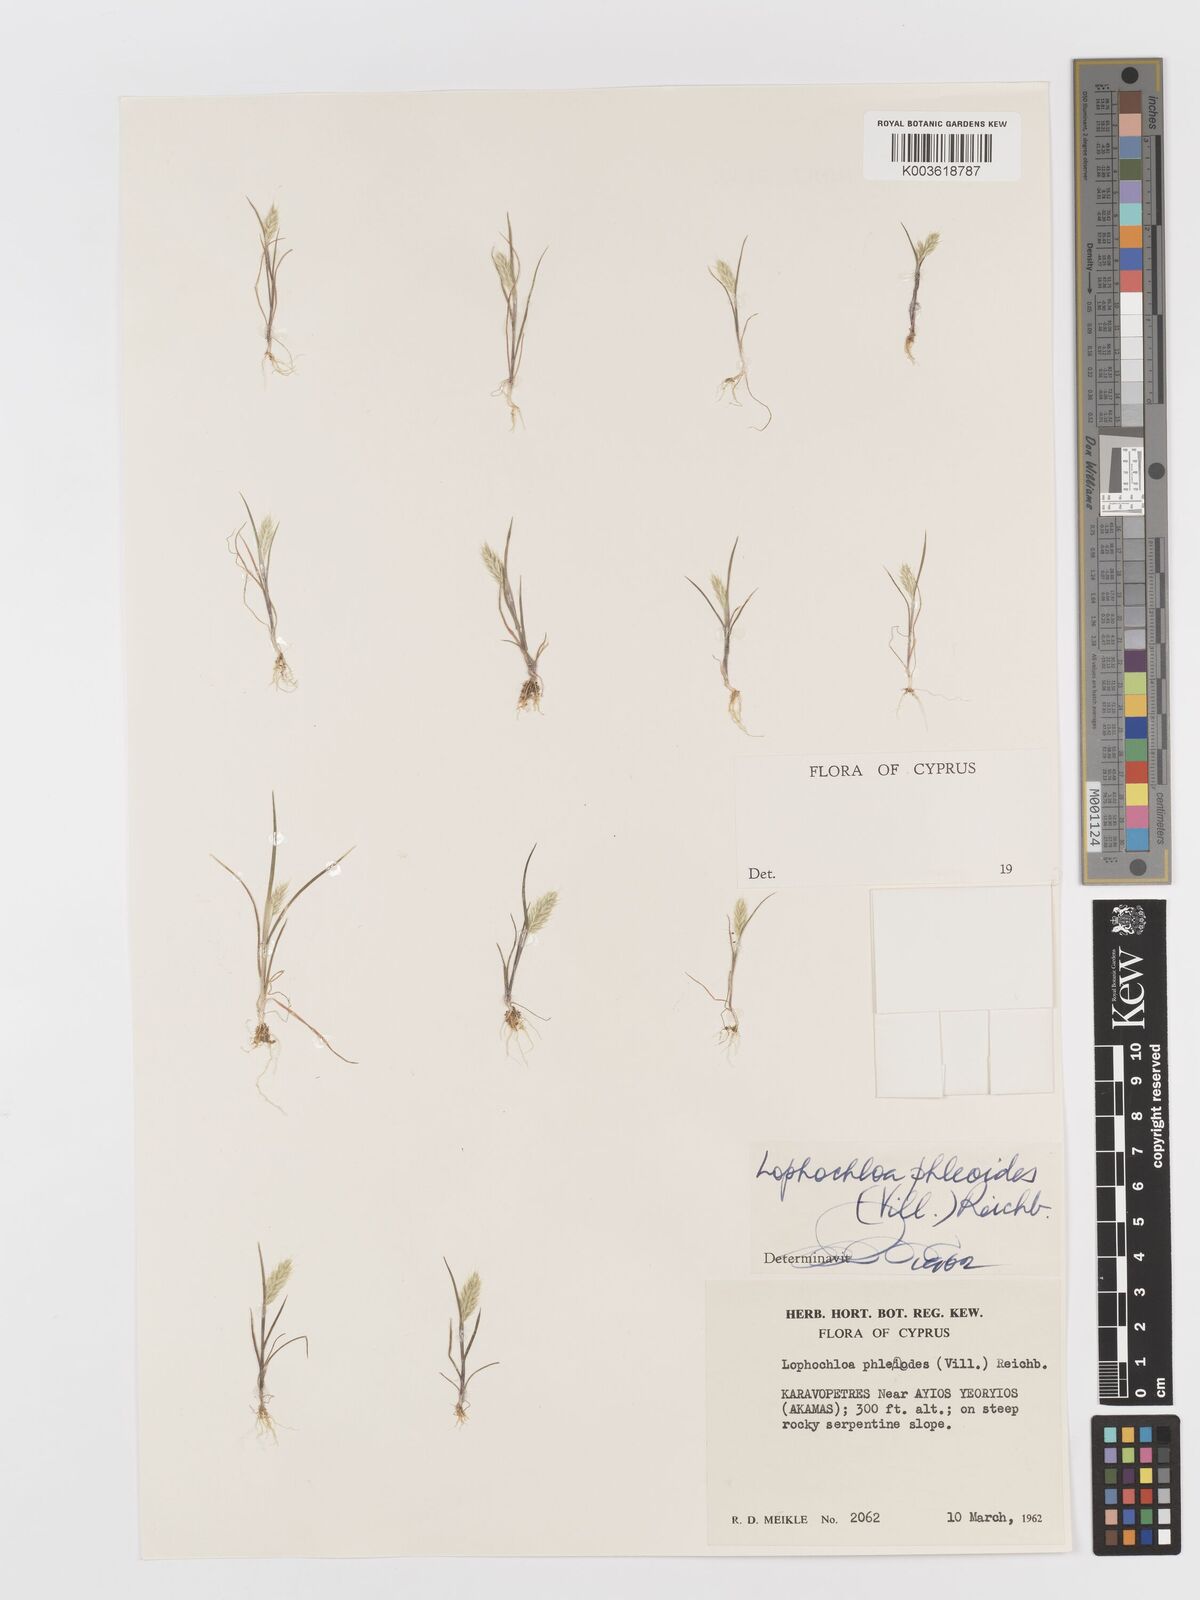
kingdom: Plantae
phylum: Tracheophyta
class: Liliopsida
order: Poales
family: Poaceae
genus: Rostraria
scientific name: Rostraria cristata
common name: Mediterranean hair-grass
